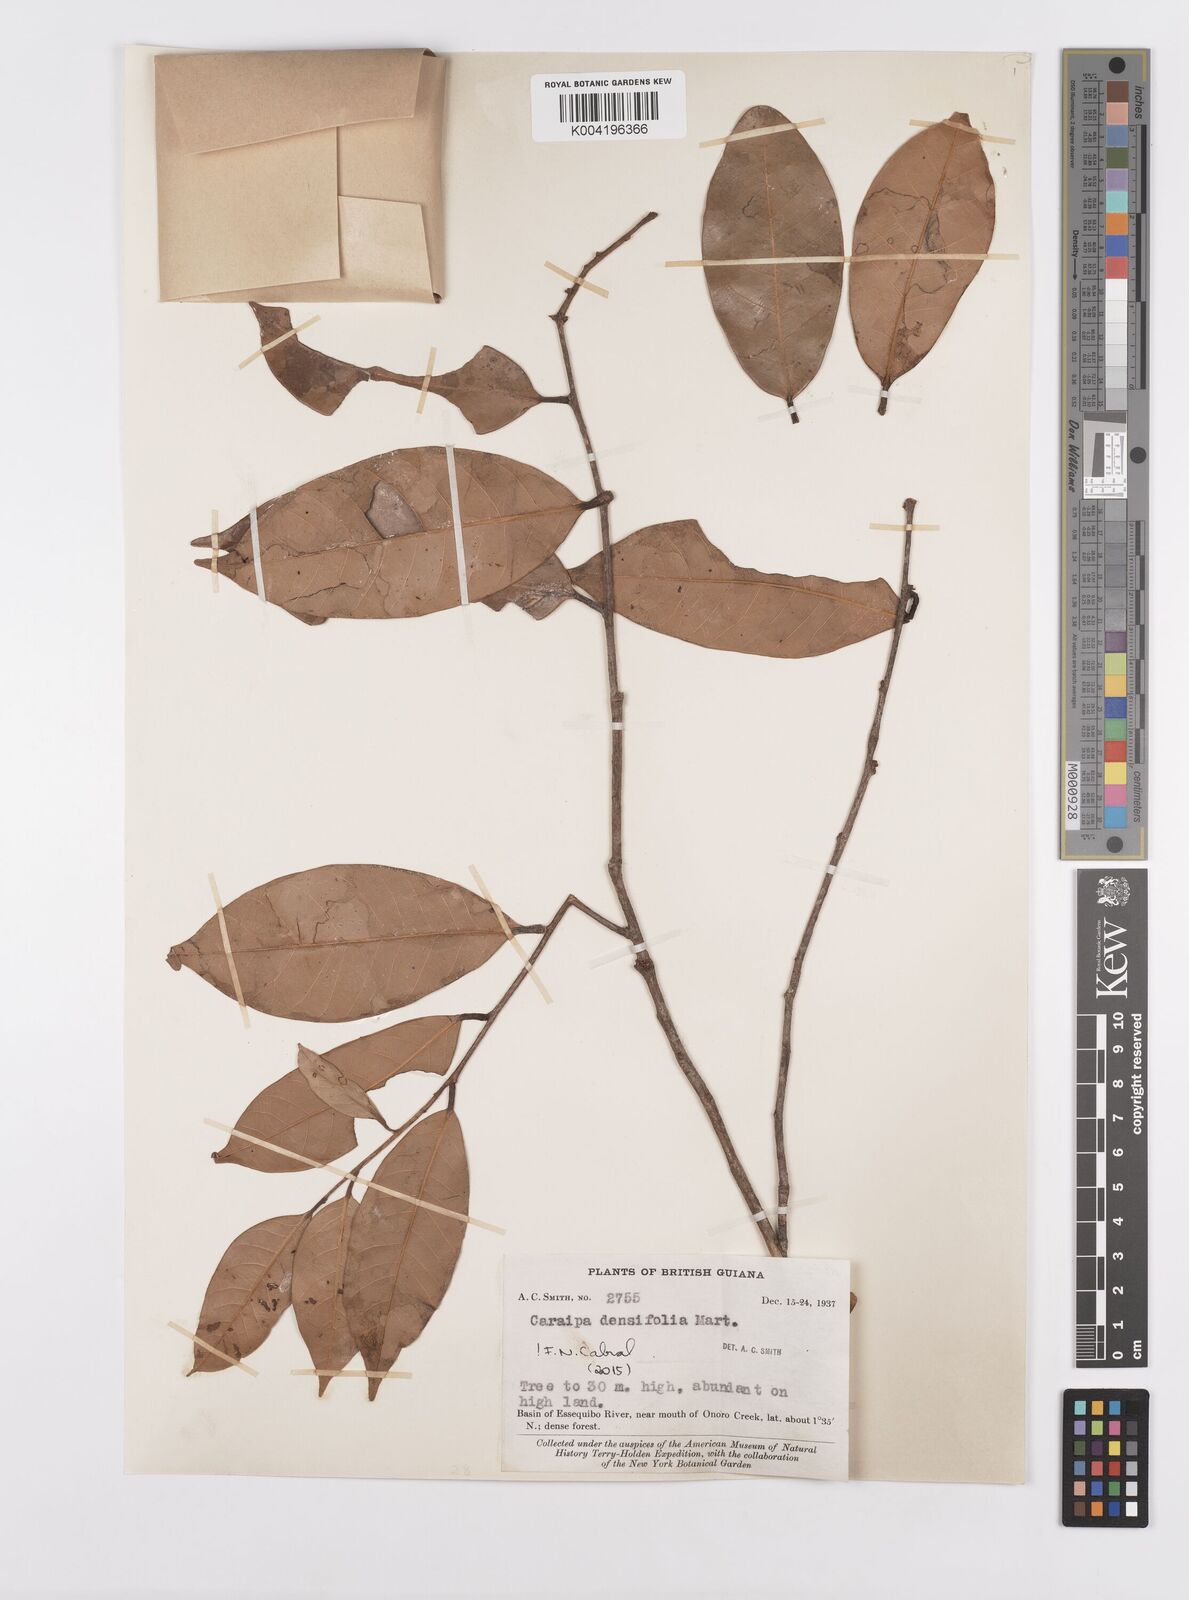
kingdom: Plantae
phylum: Tracheophyta
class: Magnoliopsida
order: Malpighiales
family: Calophyllaceae
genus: Caraipa
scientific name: Caraipa densifolia
